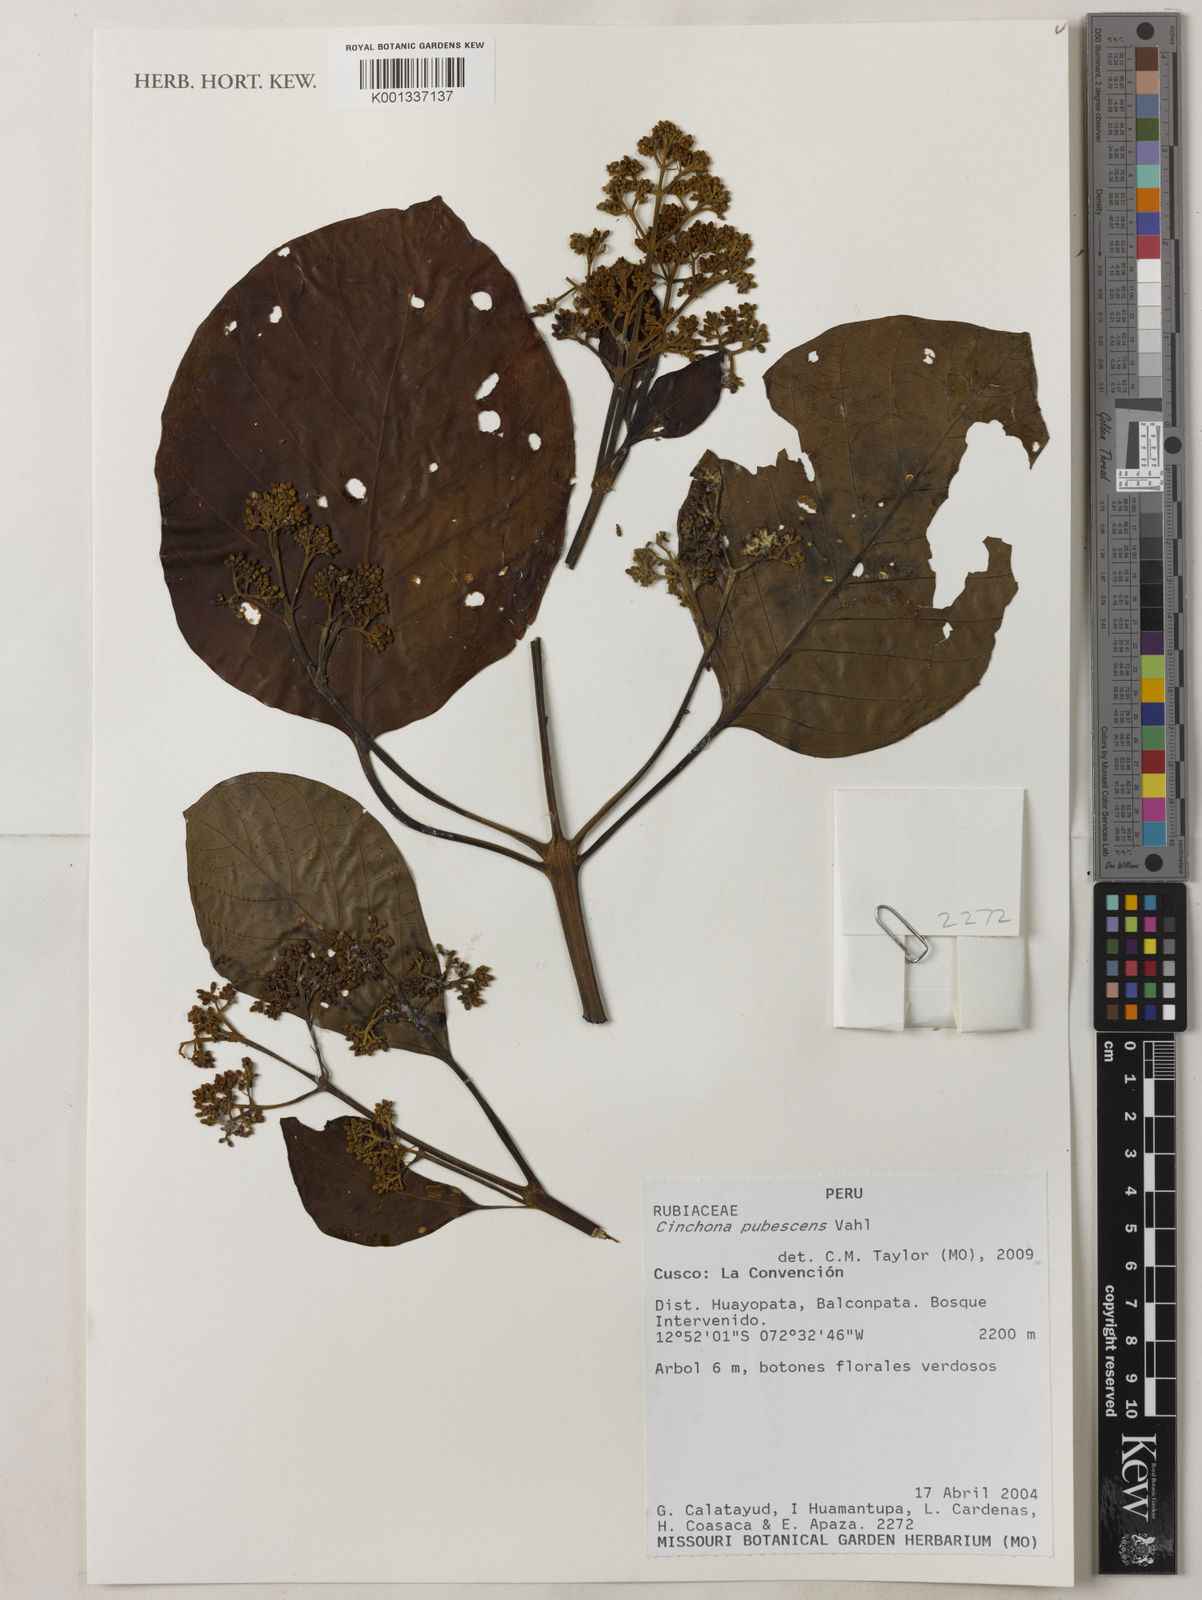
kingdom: Plantae
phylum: Tracheophyta
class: Magnoliopsida
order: Gentianales
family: Rubiaceae
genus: Cinchona
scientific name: Cinchona pubescens
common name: Quinine
